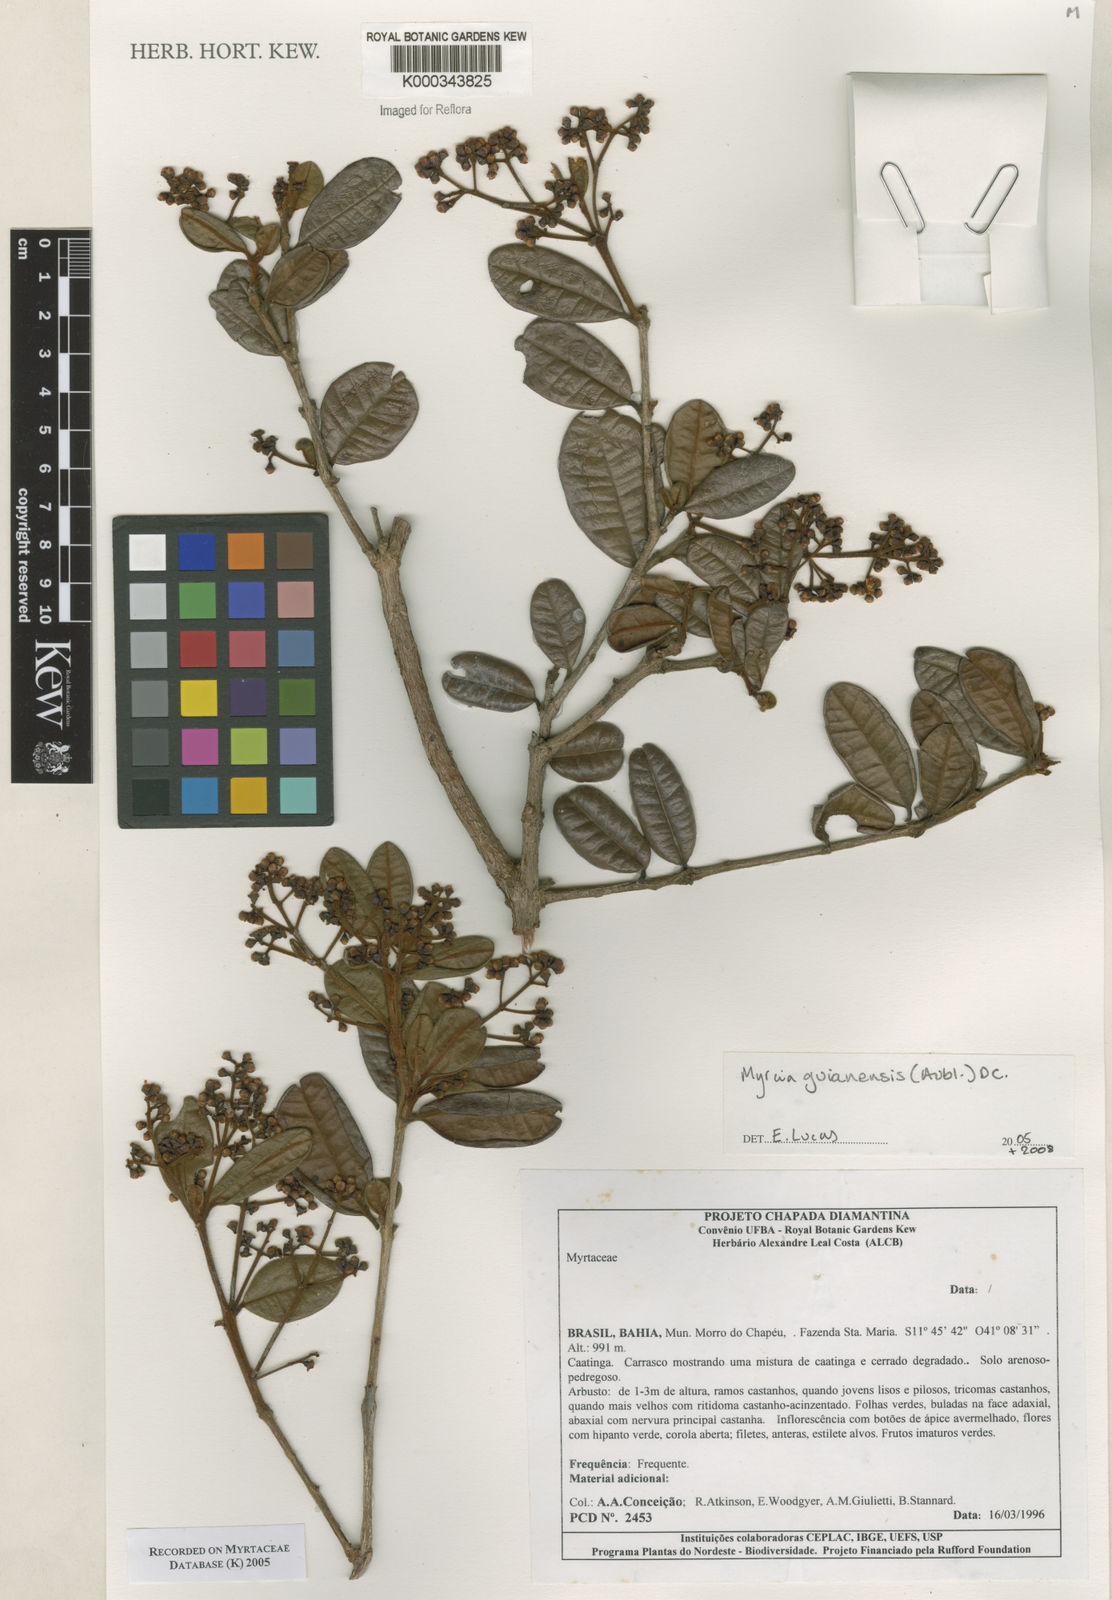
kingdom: Plantae
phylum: Tracheophyta
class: Magnoliopsida
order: Myrtales
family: Myrtaceae
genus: Myrcia
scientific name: Myrcia
